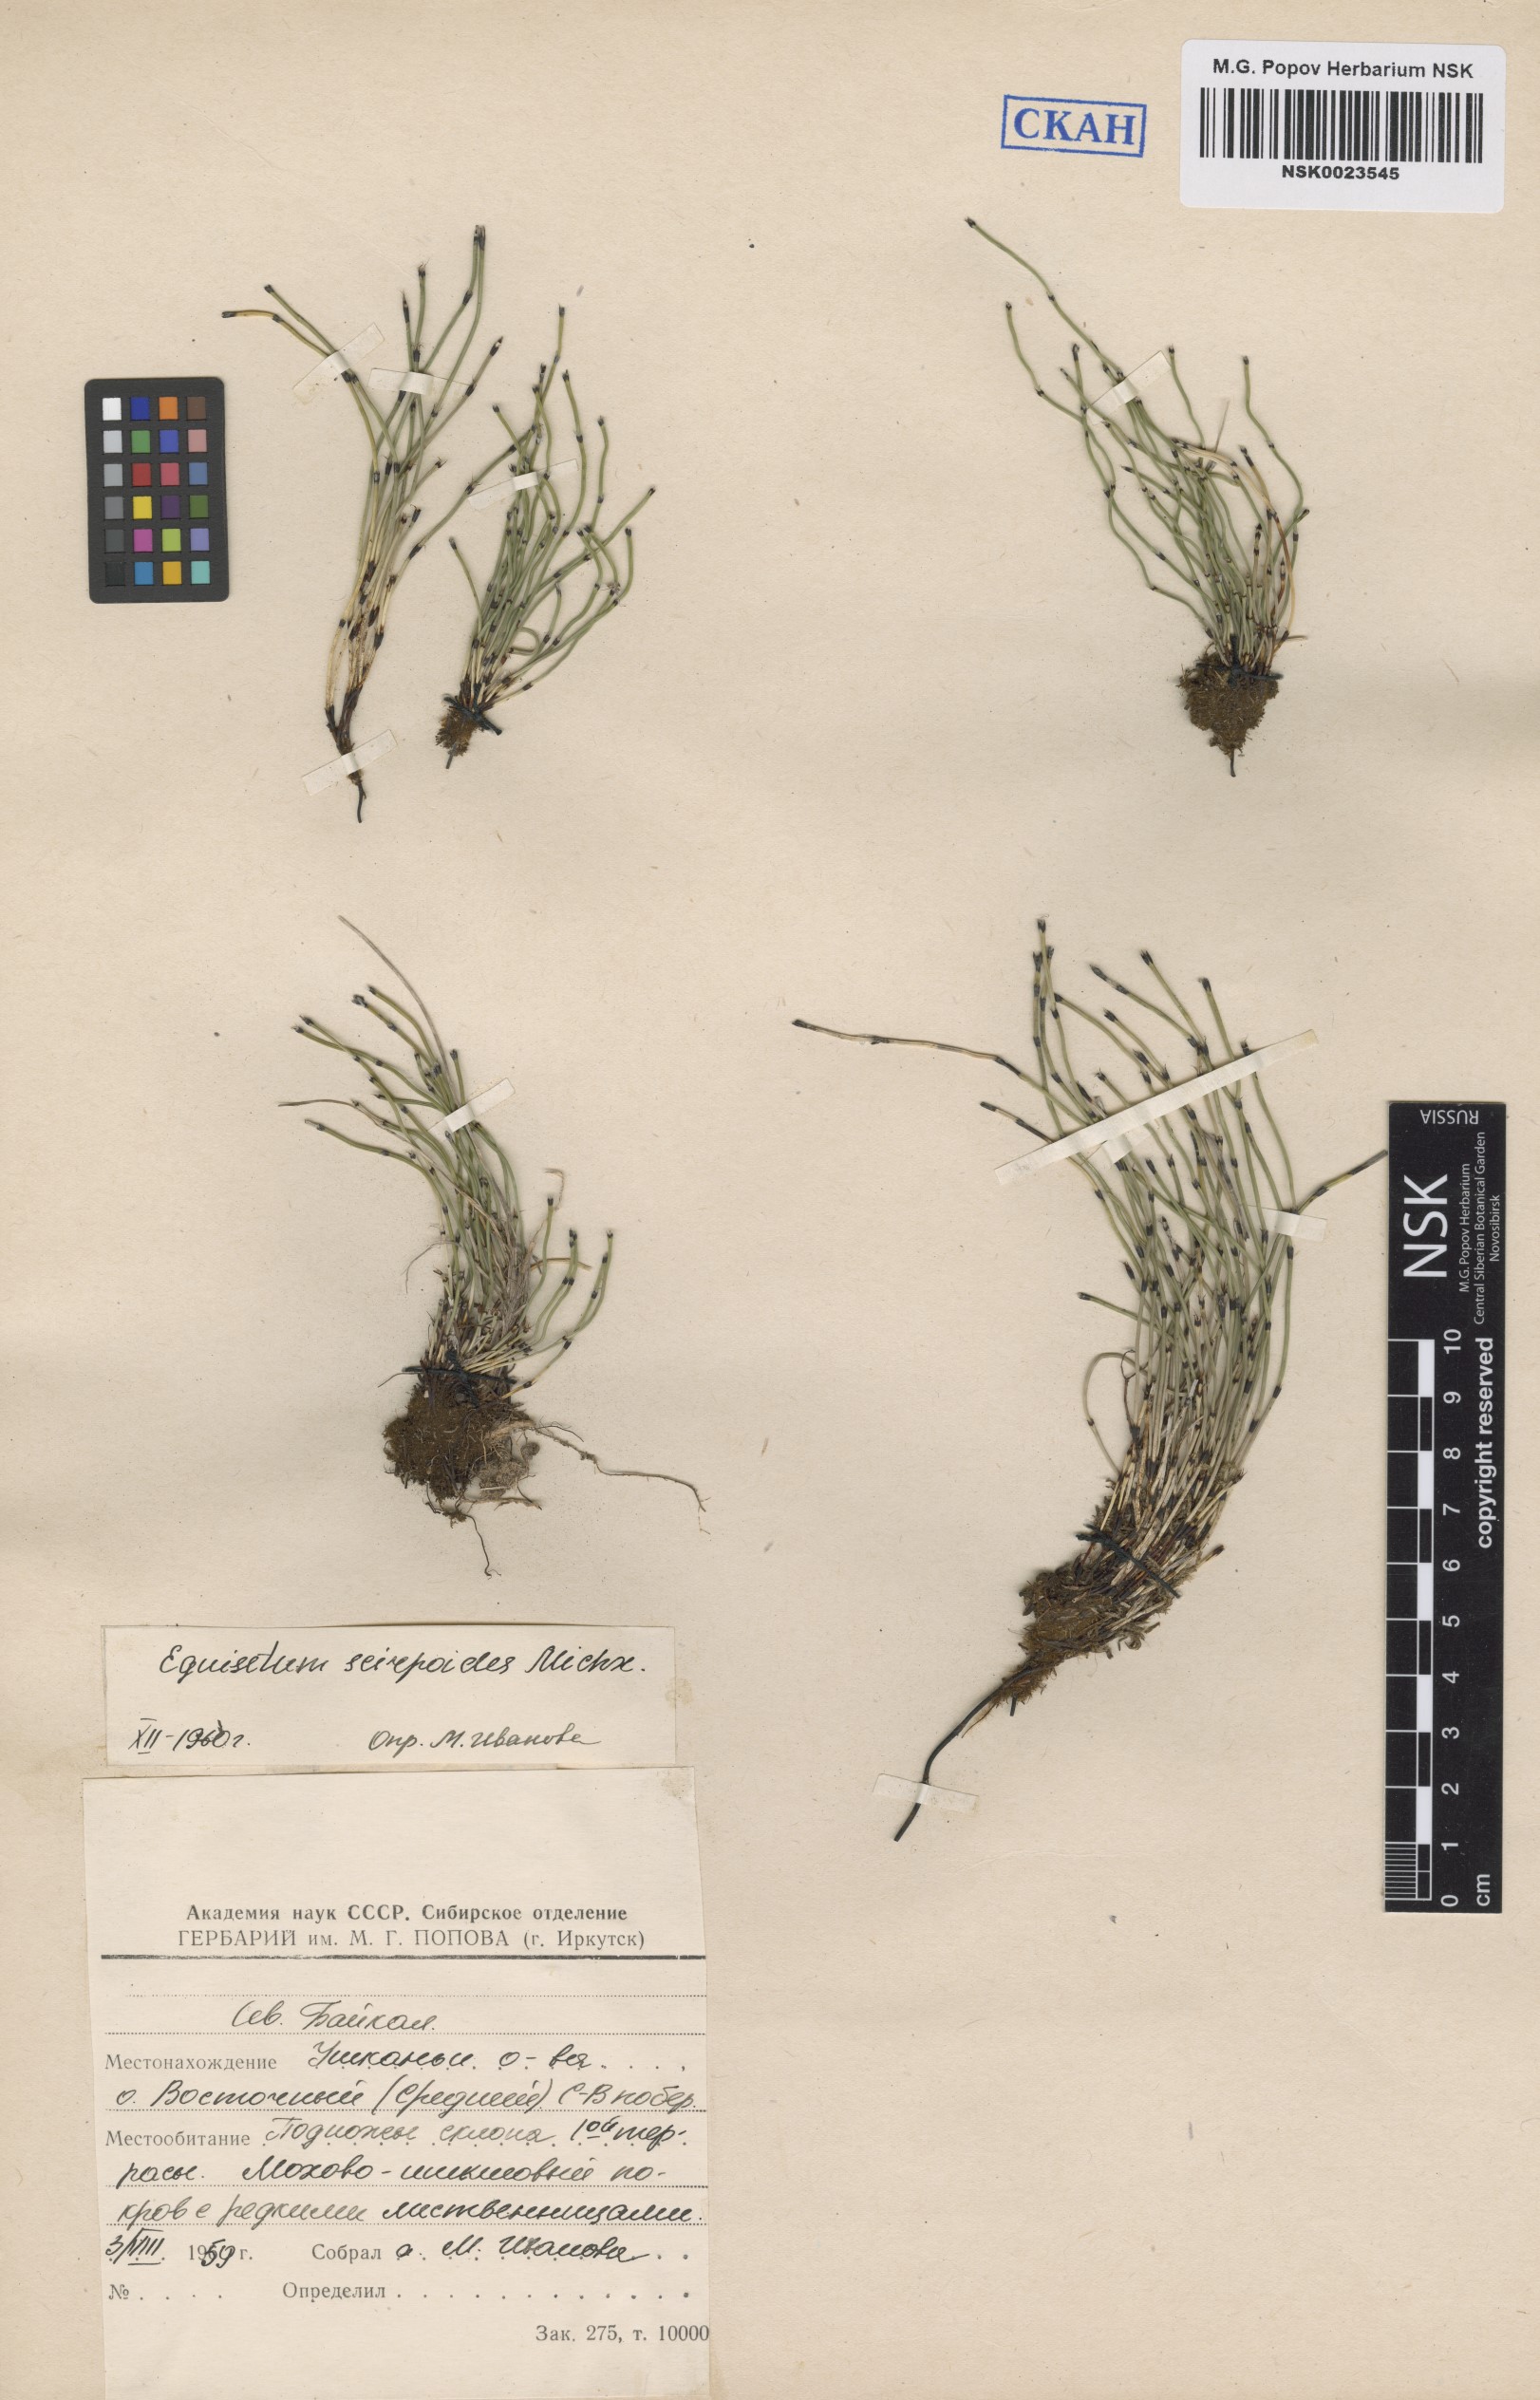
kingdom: Plantae
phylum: Tracheophyta
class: Polypodiopsida
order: Equisetales
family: Equisetaceae
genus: Equisetum
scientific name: Equisetum scirpoides
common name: Delicate horsetail
